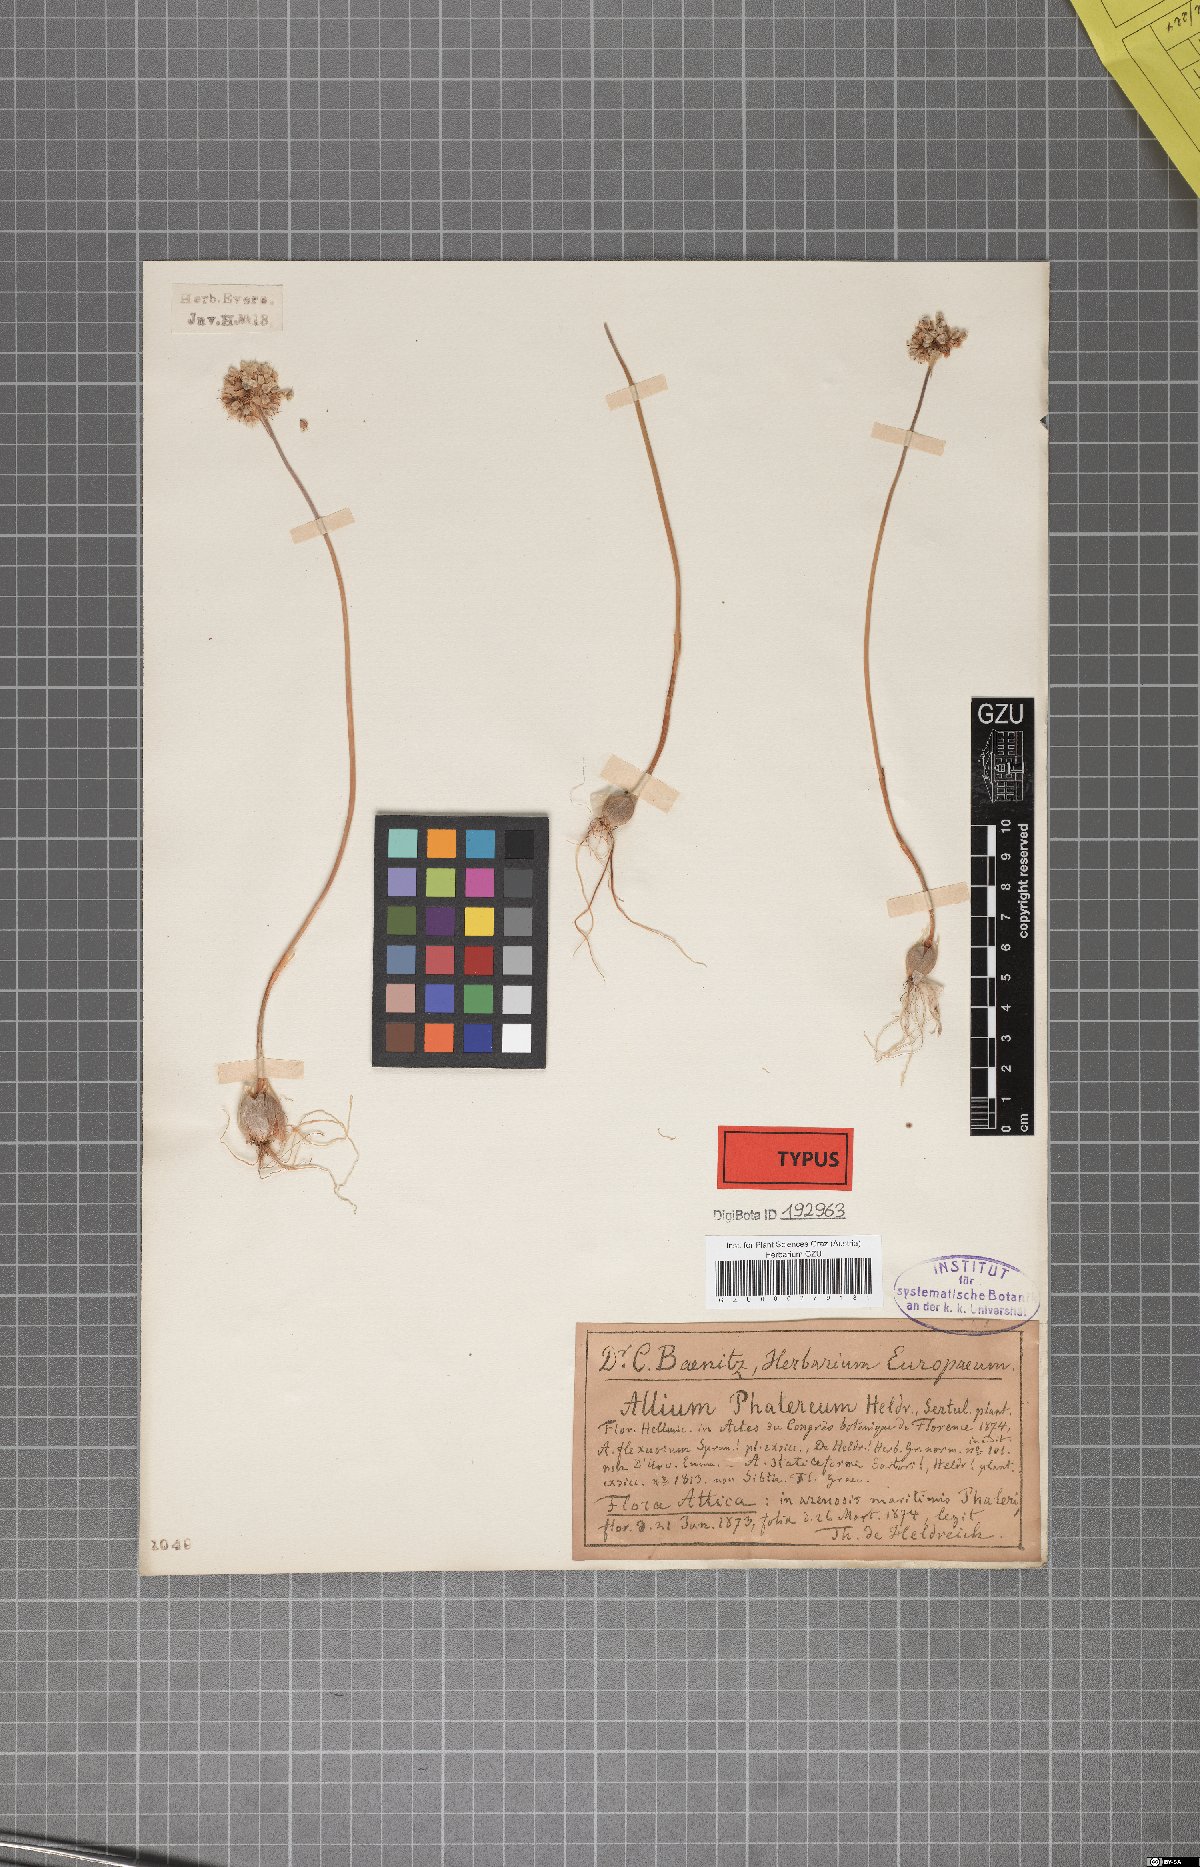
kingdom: Plantae
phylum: Tracheophyta
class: Liliopsida
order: Asparagales
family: Amaryllidaceae
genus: Allium
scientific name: Allium staticiforme
